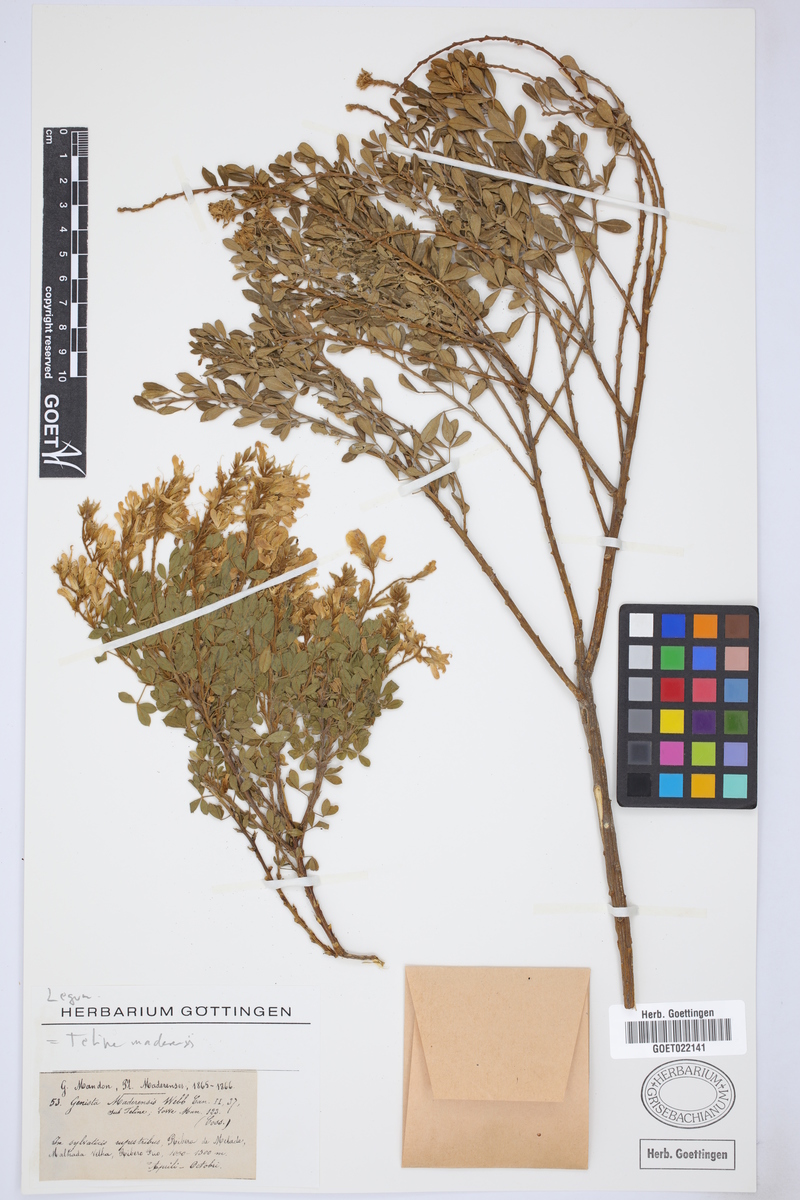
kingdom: Plantae
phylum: Tracheophyta
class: Magnoliopsida
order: Fabales
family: Fabaceae
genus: Genista
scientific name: Genista maderensis
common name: Madeira dyer's greenweed
